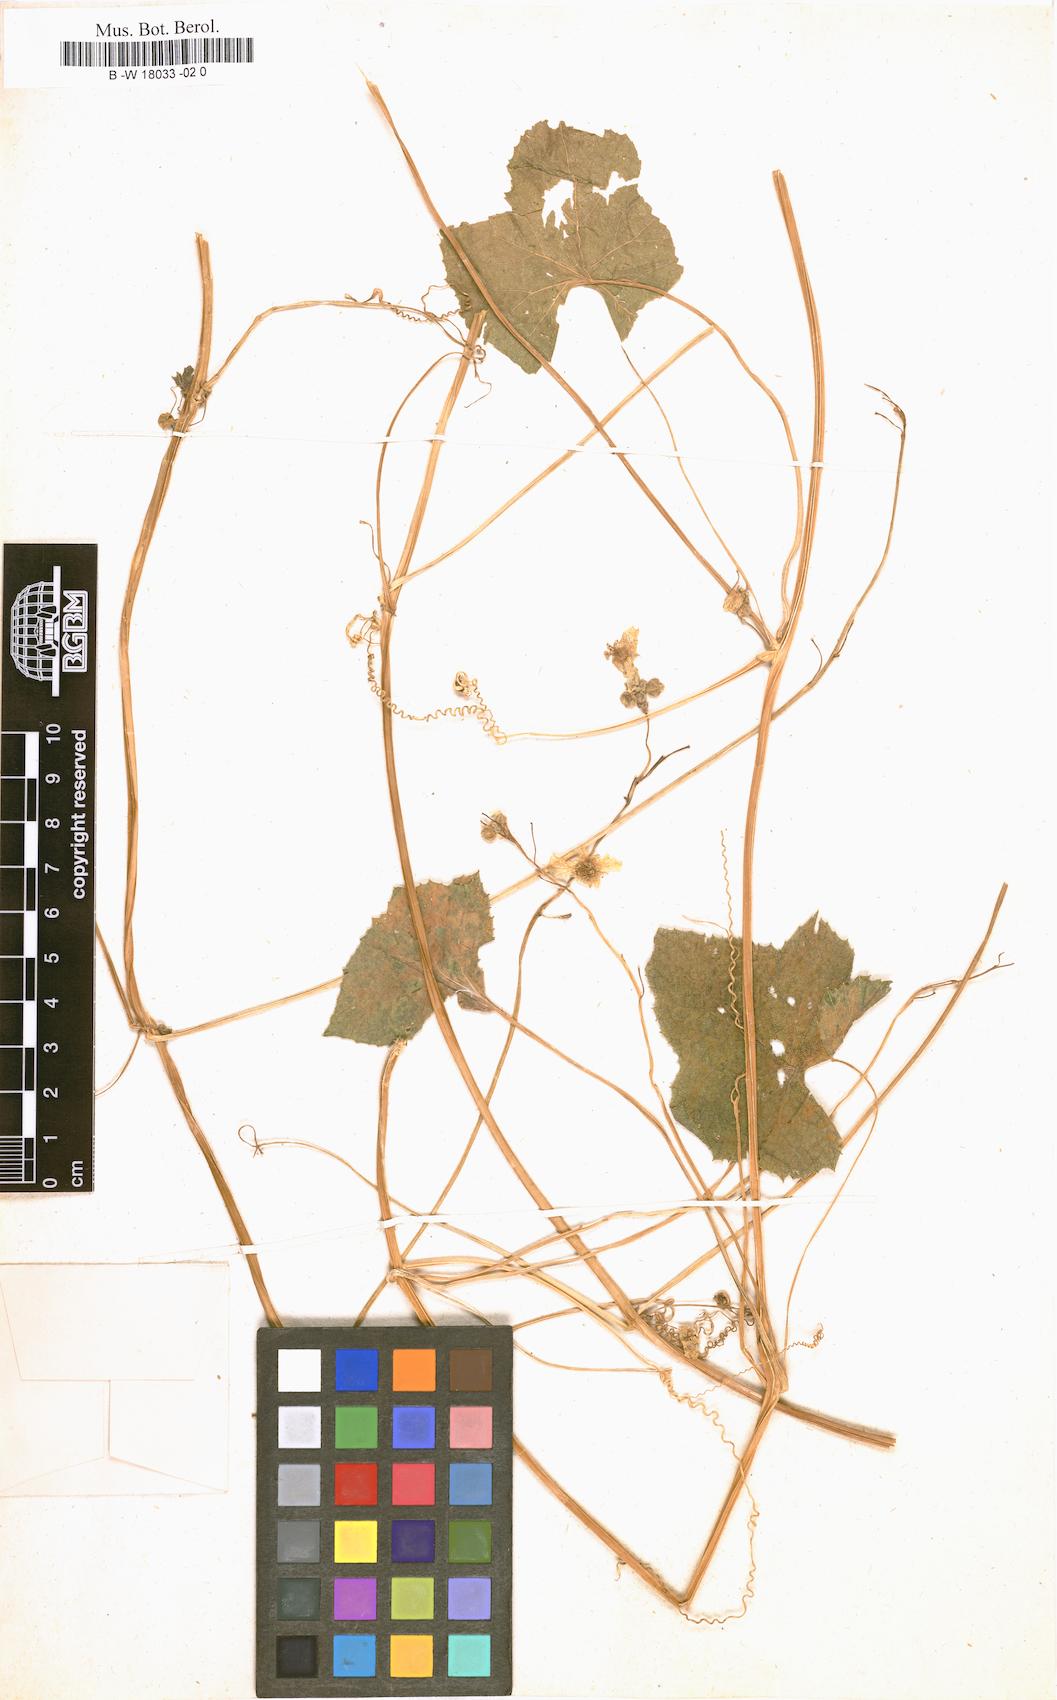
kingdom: Plantae
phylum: Tracheophyta
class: Magnoliopsida
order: Cucurbitales
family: Cucurbitaceae
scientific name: Cucurbitaceae
